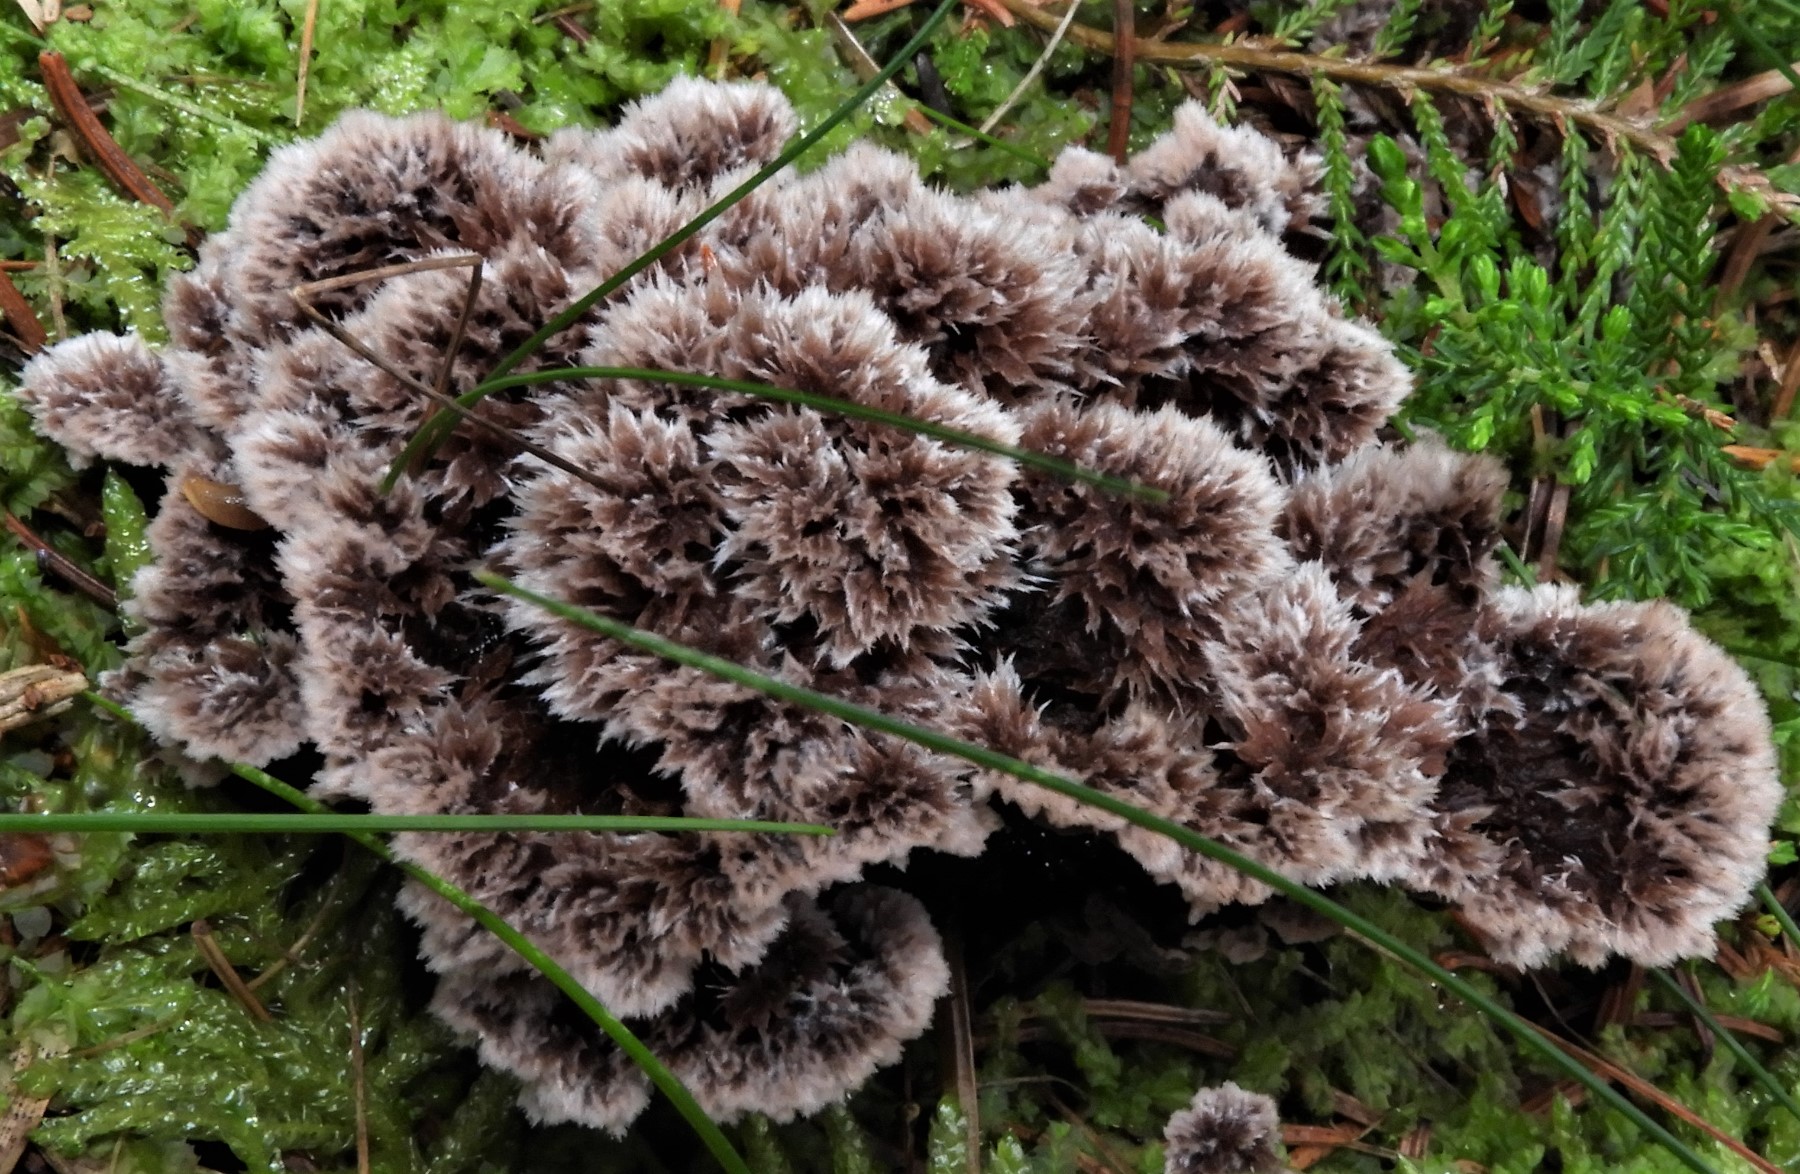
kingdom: Fungi
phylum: Basidiomycota
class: Agaricomycetes
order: Thelephorales
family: Thelephoraceae
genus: Thelephora
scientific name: Thelephora terrestris
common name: fliget frynsesvamp
